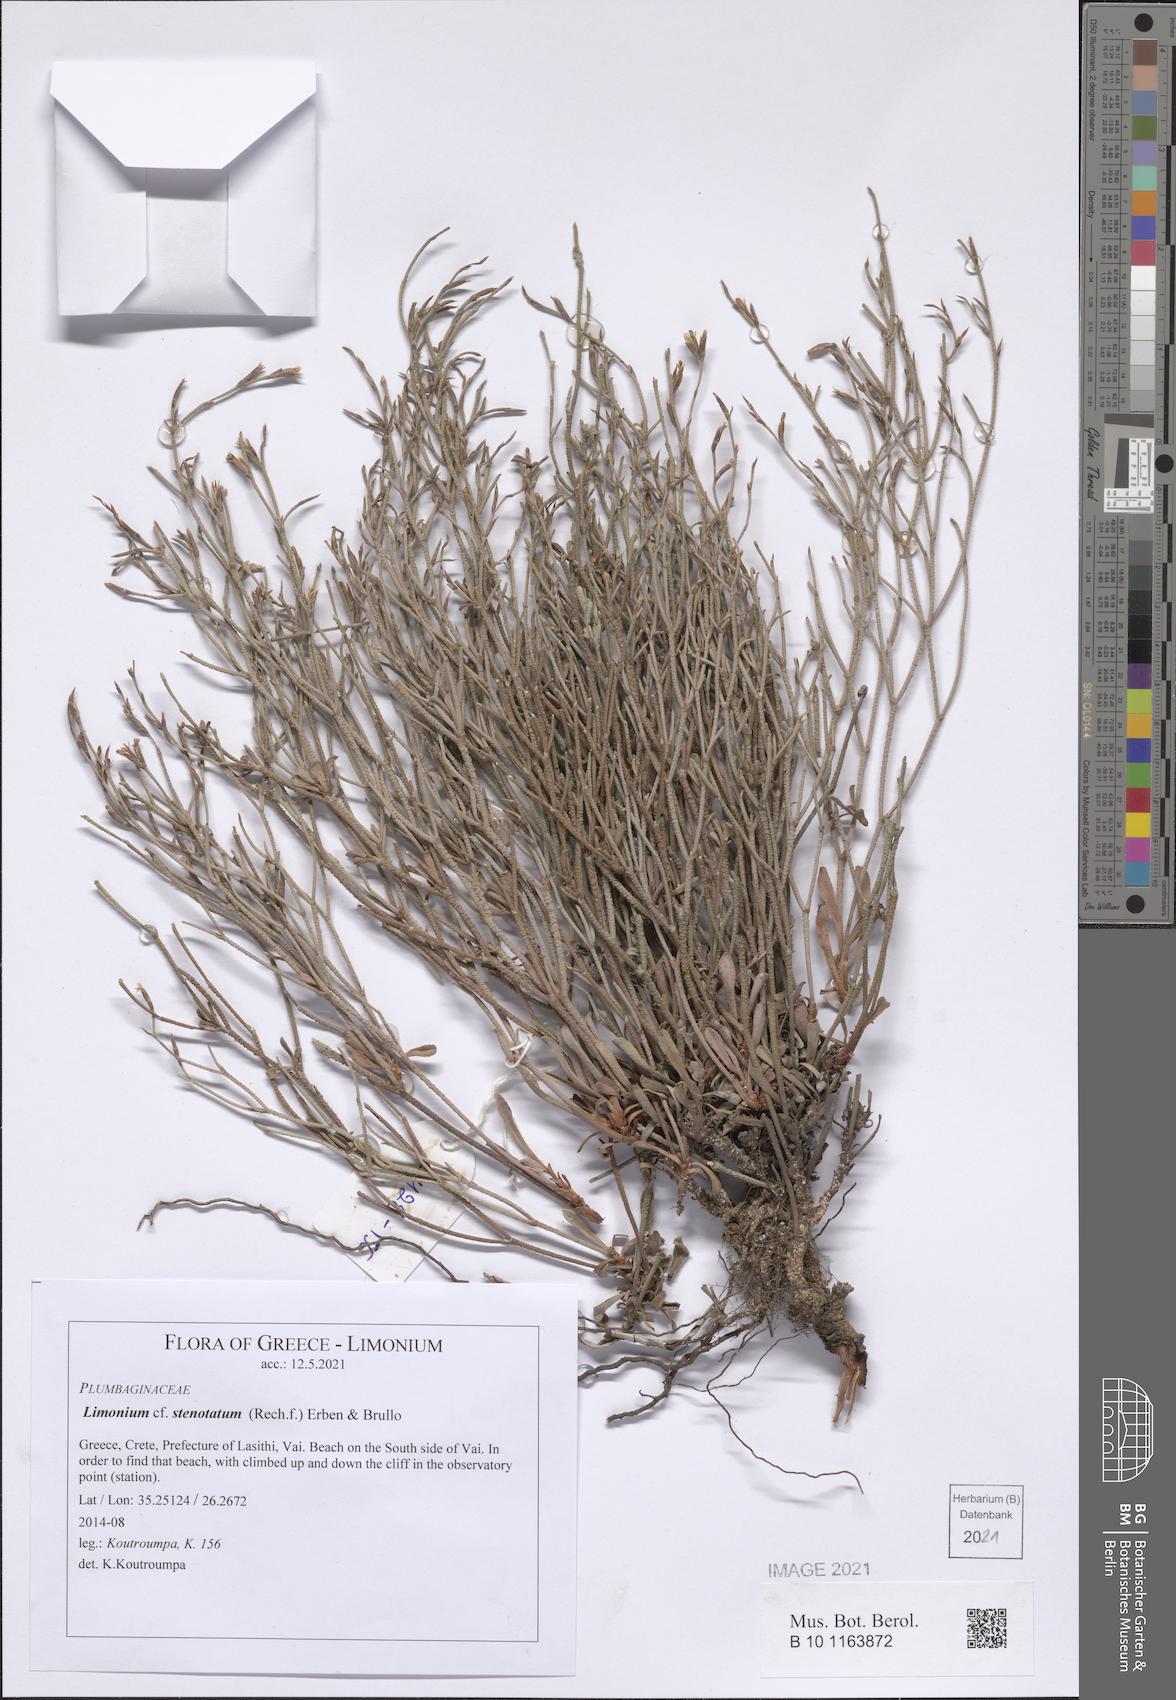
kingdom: Plantae
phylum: Tracheophyta
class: Magnoliopsida
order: Caryophyllales
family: Plumbaginaceae
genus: Limonium
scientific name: Limonium stenotatum
